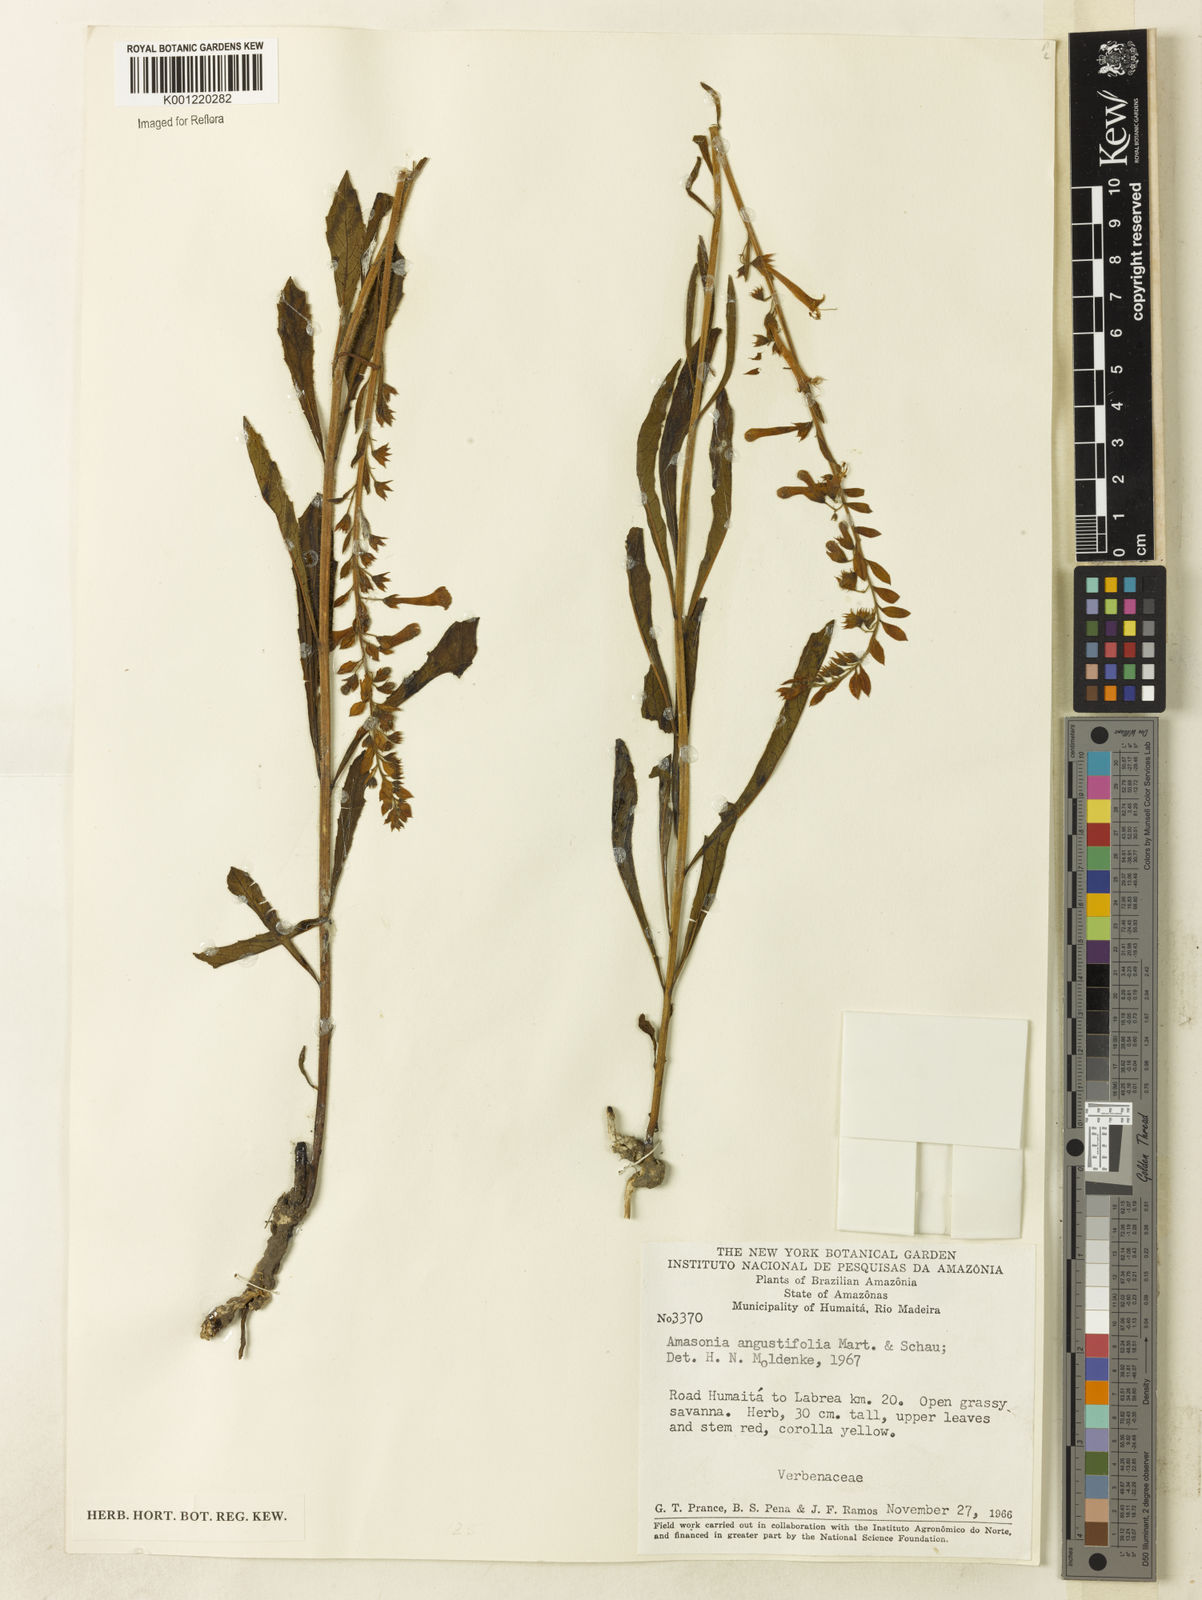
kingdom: Plantae
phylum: Tracheophyta
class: Magnoliopsida
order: Lamiales
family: Lamiaceae
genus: Amasonia
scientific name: Amasonia angustifolia
